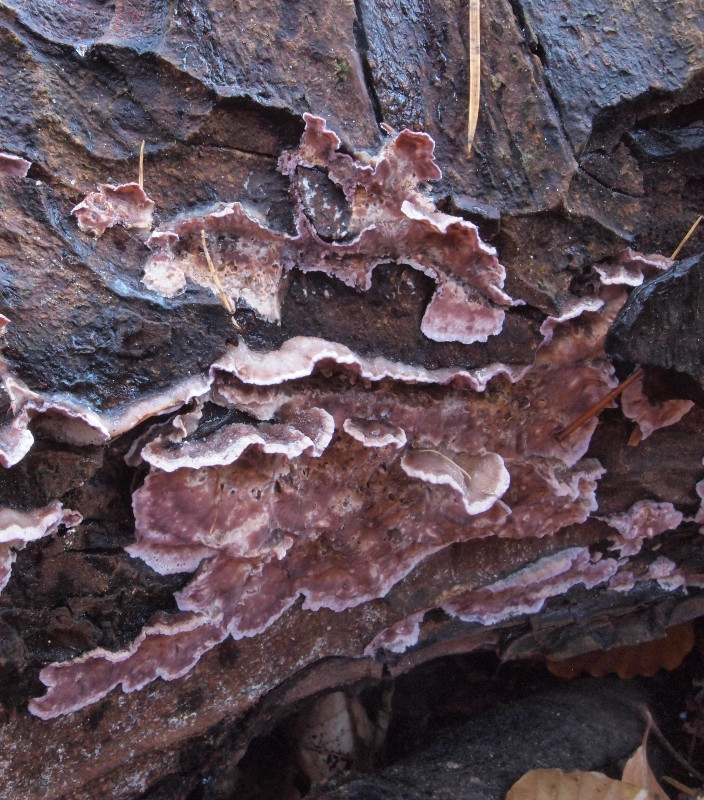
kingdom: Fungi
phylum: Basidiomycota
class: Agaricomycetes
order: Agaricales
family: Cyphellaceae
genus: Chondrostereum
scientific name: Chondrostereum purpureum
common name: purpurlædersvamp
